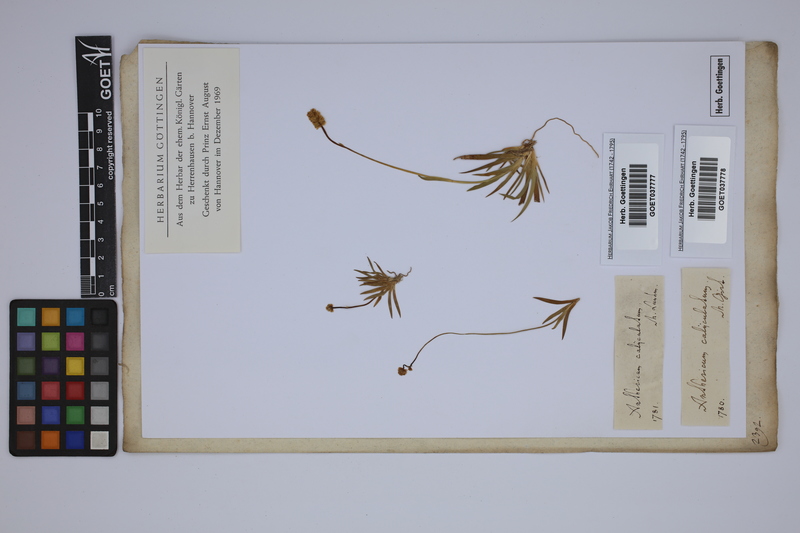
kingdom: Plantae
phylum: Tracheophyta
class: Liliopsida
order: Alismatales
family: Tofieldiaceae
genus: Tofieldia
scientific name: Tofieldia calyculata
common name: German-asphodel
